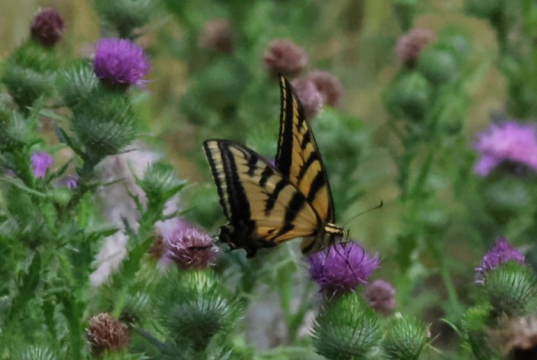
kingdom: Animalia
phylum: Arthropoda
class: Insecta
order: Lepidoptera
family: Papilionidae
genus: Pterourus
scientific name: Pterourus rutulus
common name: Western Tiger Swallowtail
